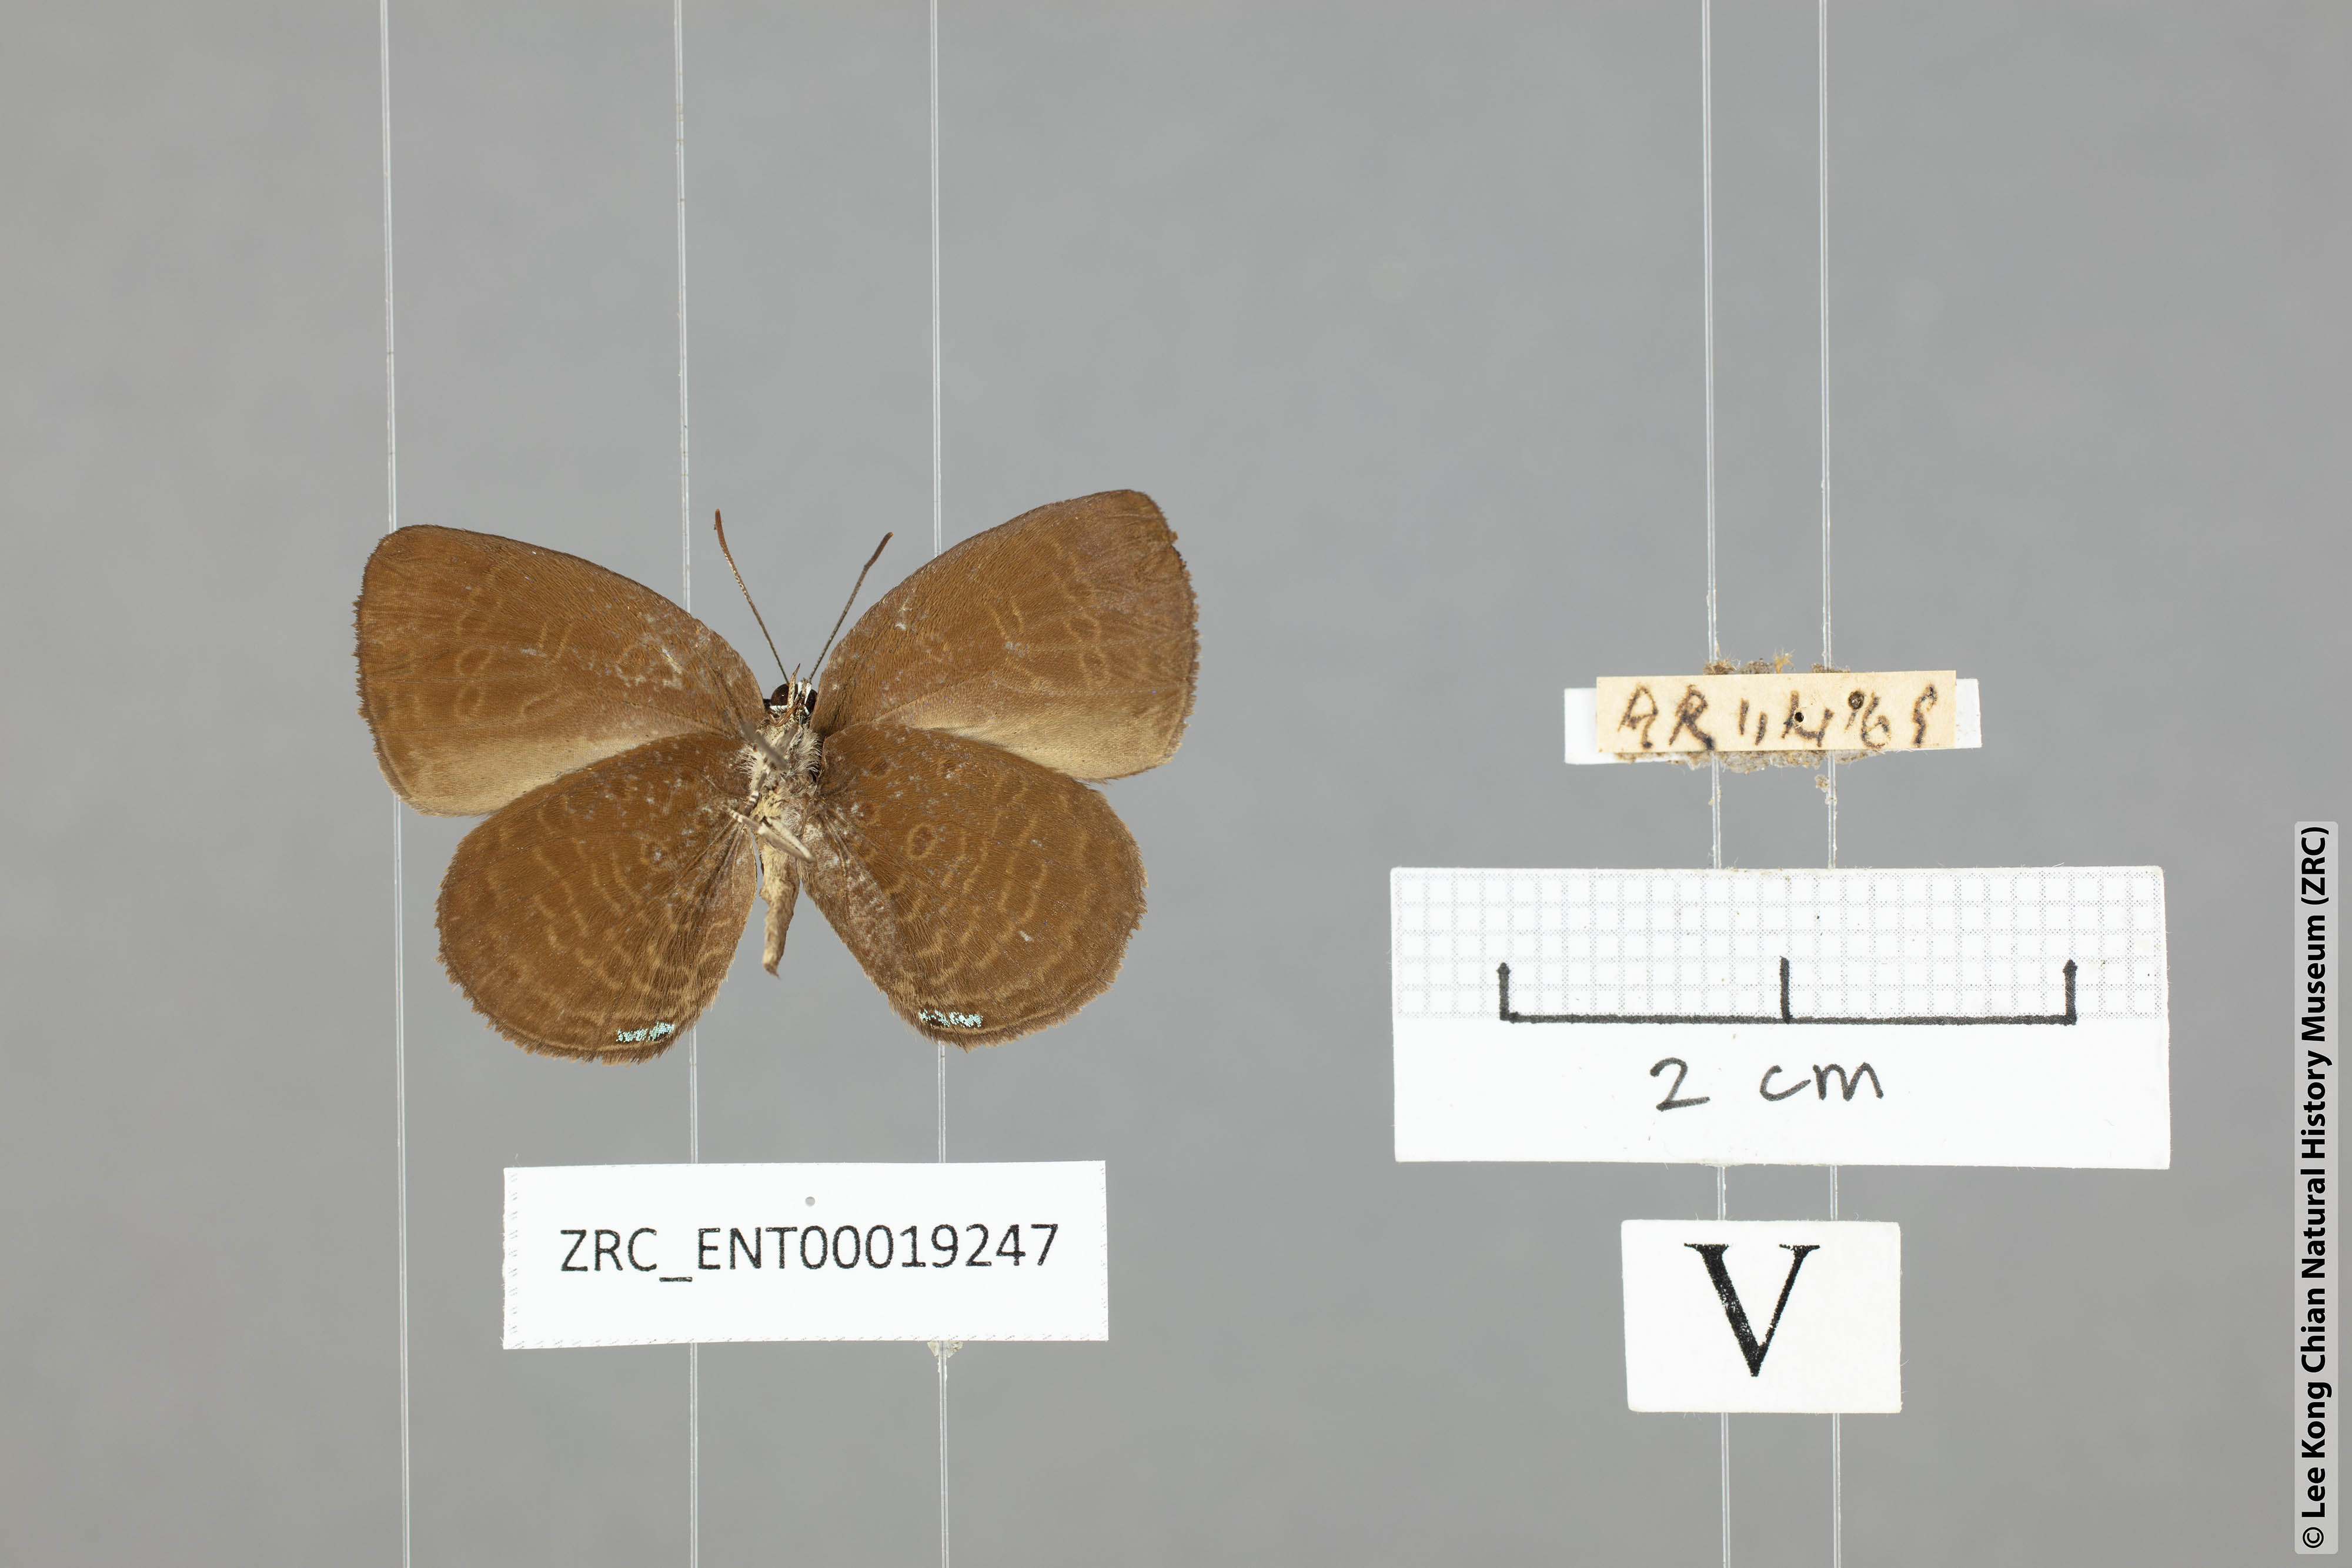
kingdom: Animalia
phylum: Arthropoda
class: Insecta
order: Lepidoptera
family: Lycaenidae
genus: Arhopala
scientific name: Arhopala avatha
